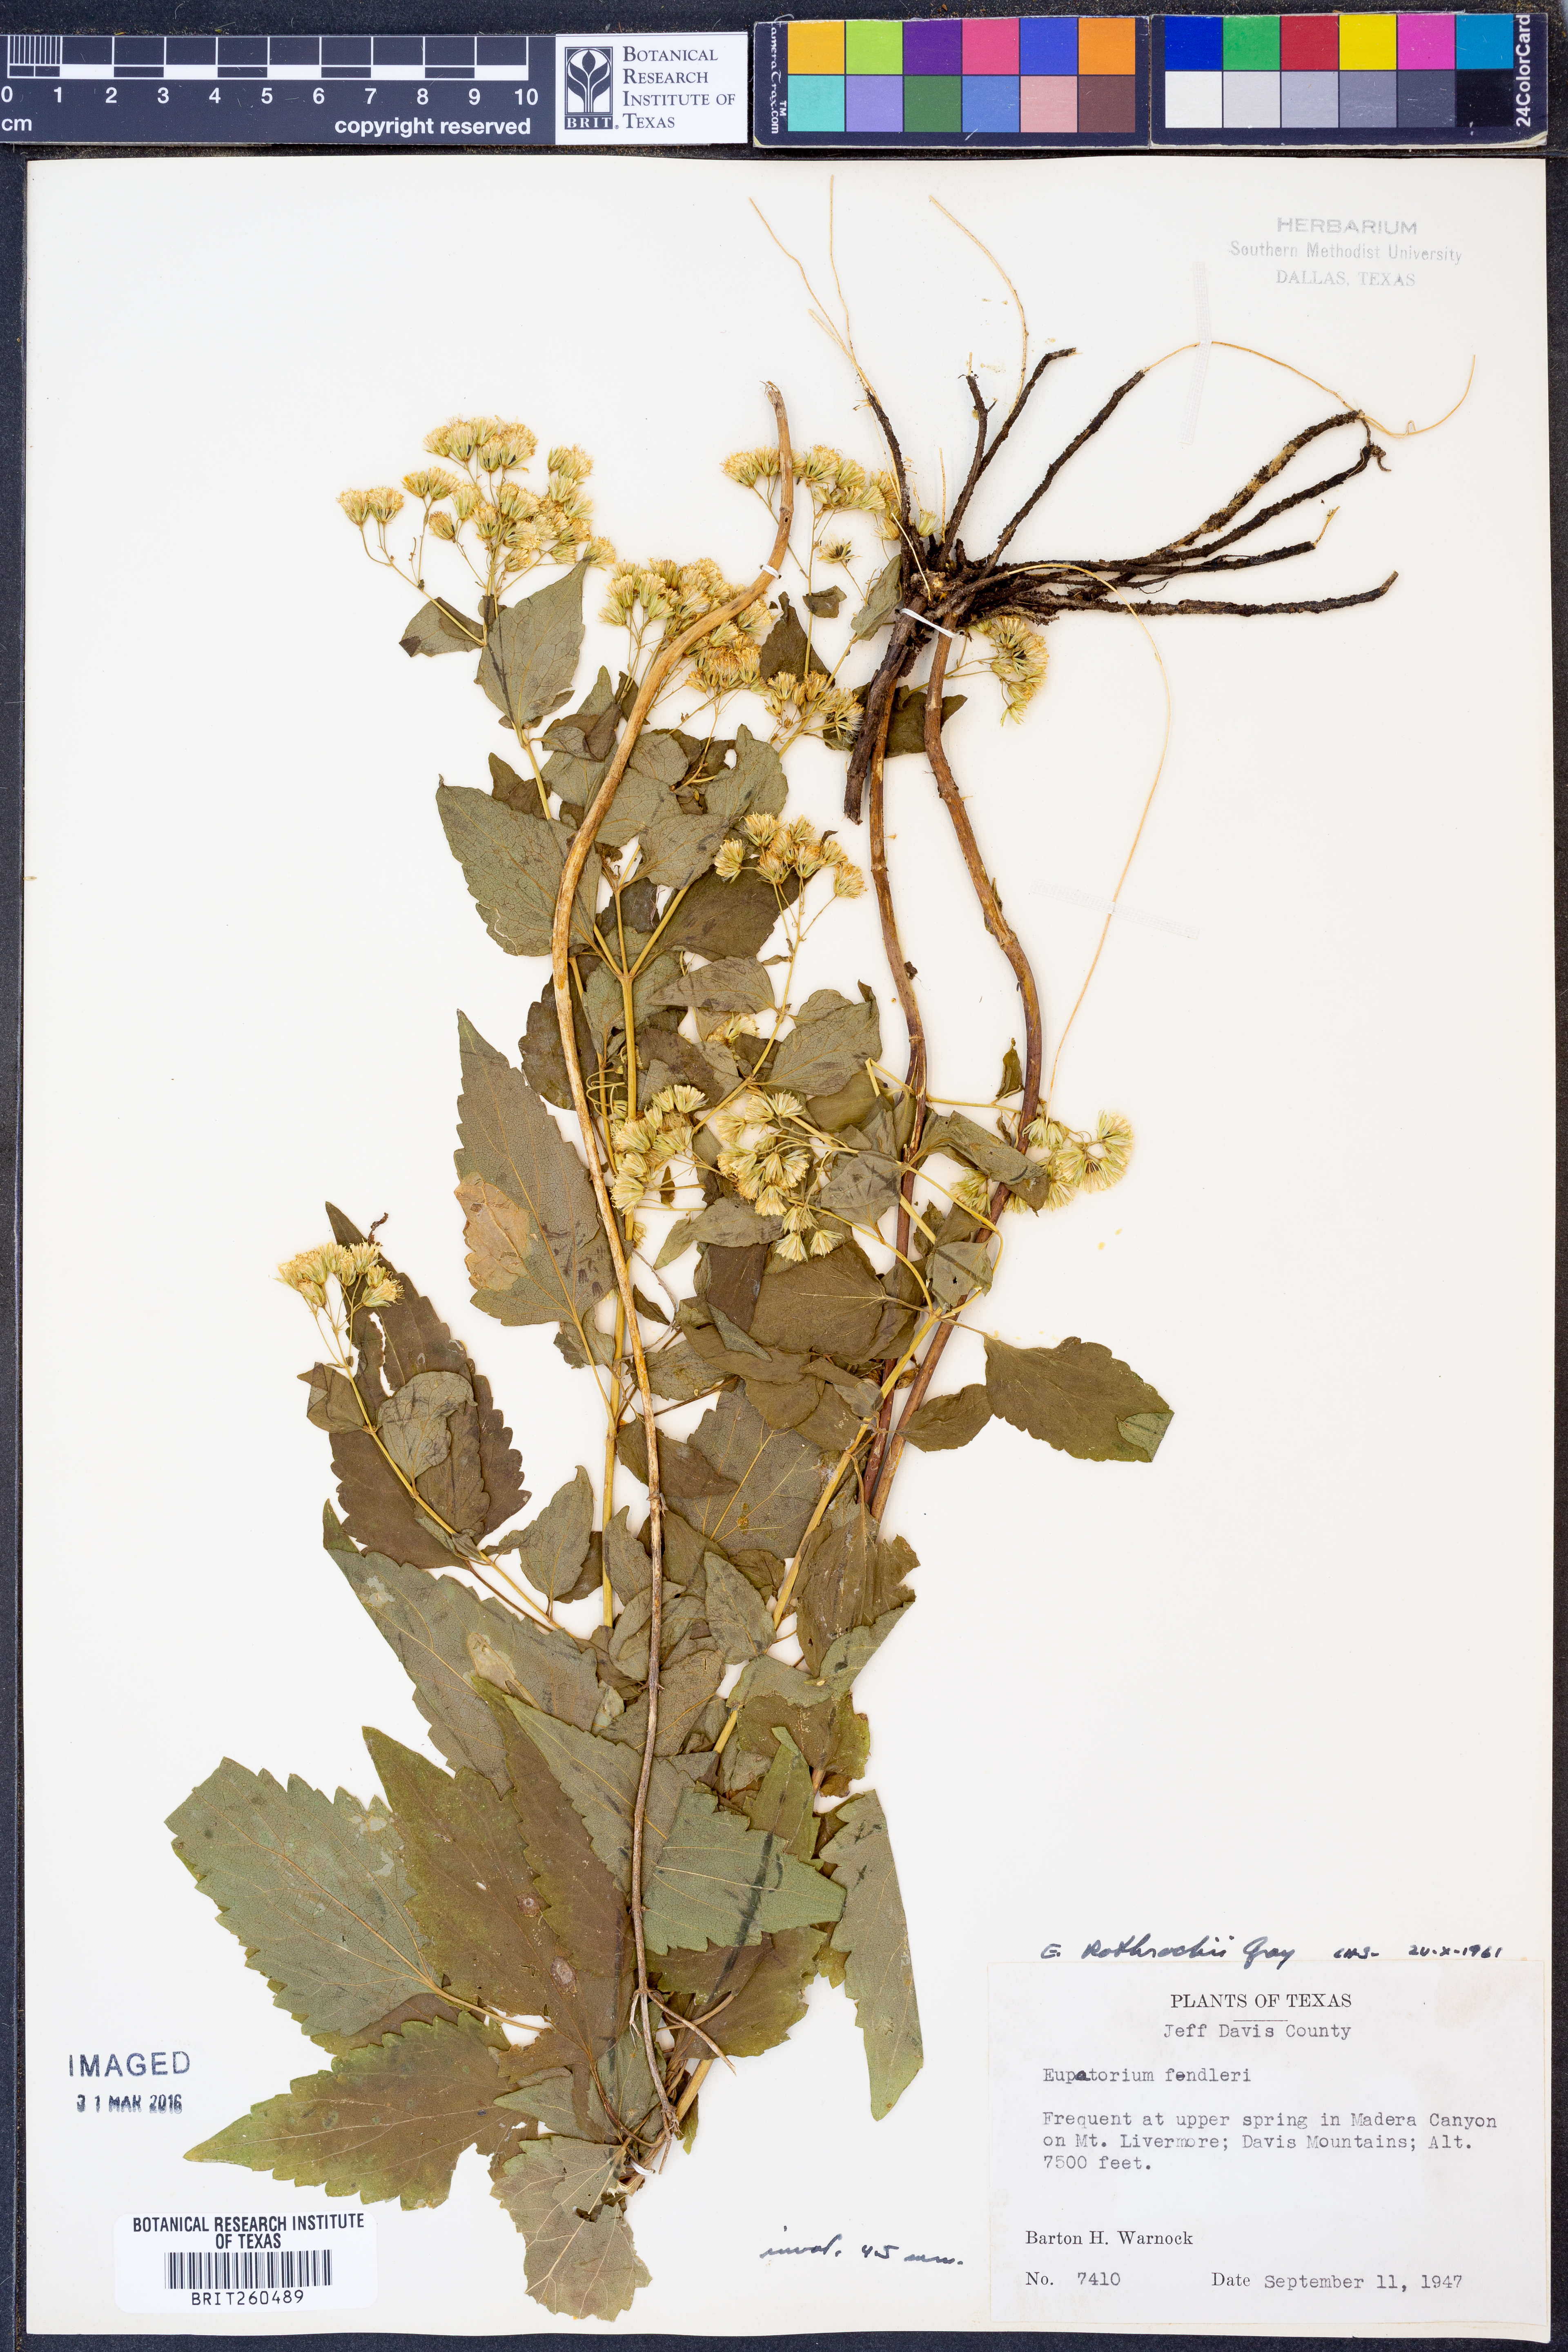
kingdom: Plantae
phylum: Tracheophyta
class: Magnoliopsida
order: Asterales
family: Asteraceae
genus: Ageratina
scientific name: Ageratina rothrockii
